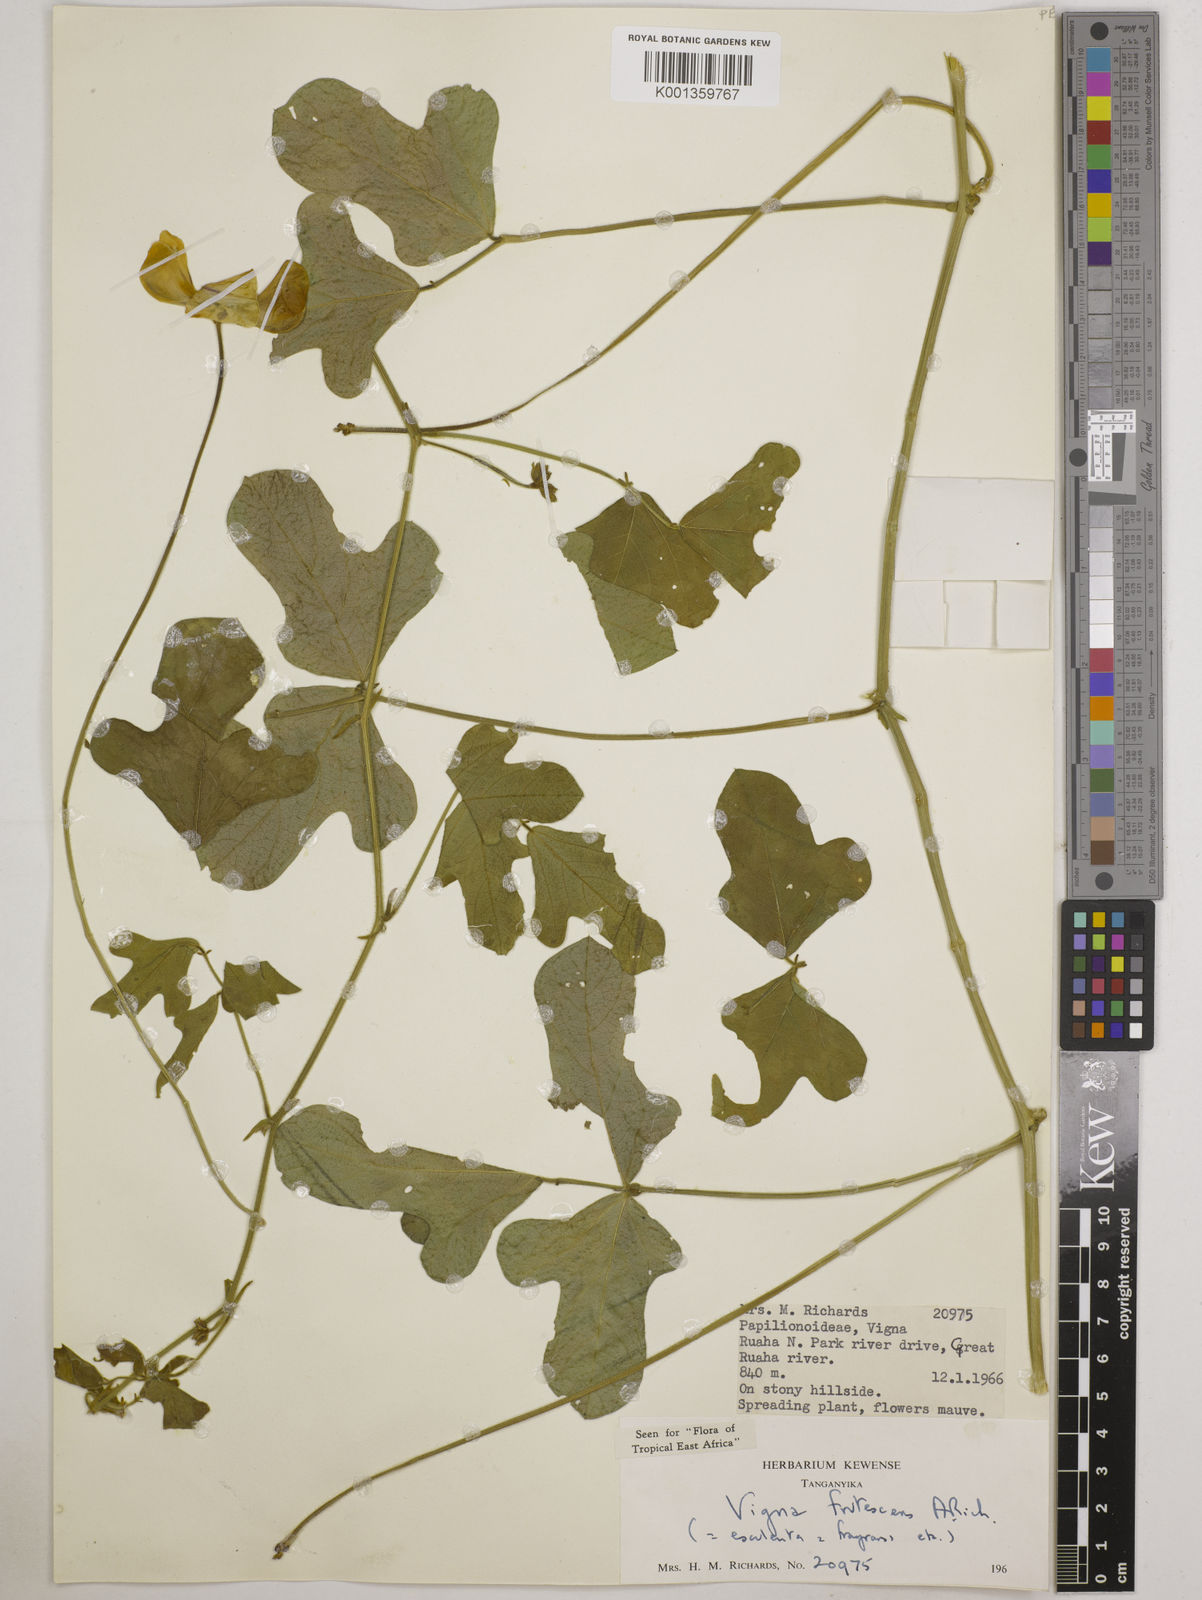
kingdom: Plantae
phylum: Tracheophyta
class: Magnoliopsida
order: Fabales
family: Fabaceae
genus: Vigna
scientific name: Vigna frutescens
